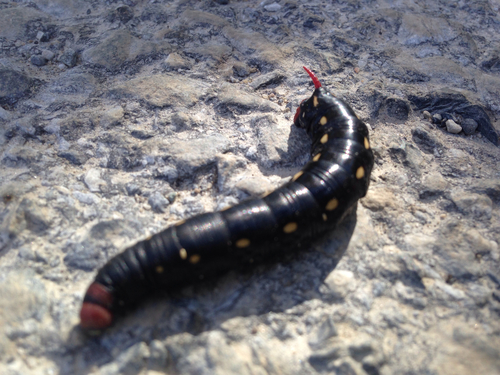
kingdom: Animalia
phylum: Arthropoda
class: Insecta
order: Lepidoptera
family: Sphingidae
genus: Hyles
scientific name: Hyles gallii
